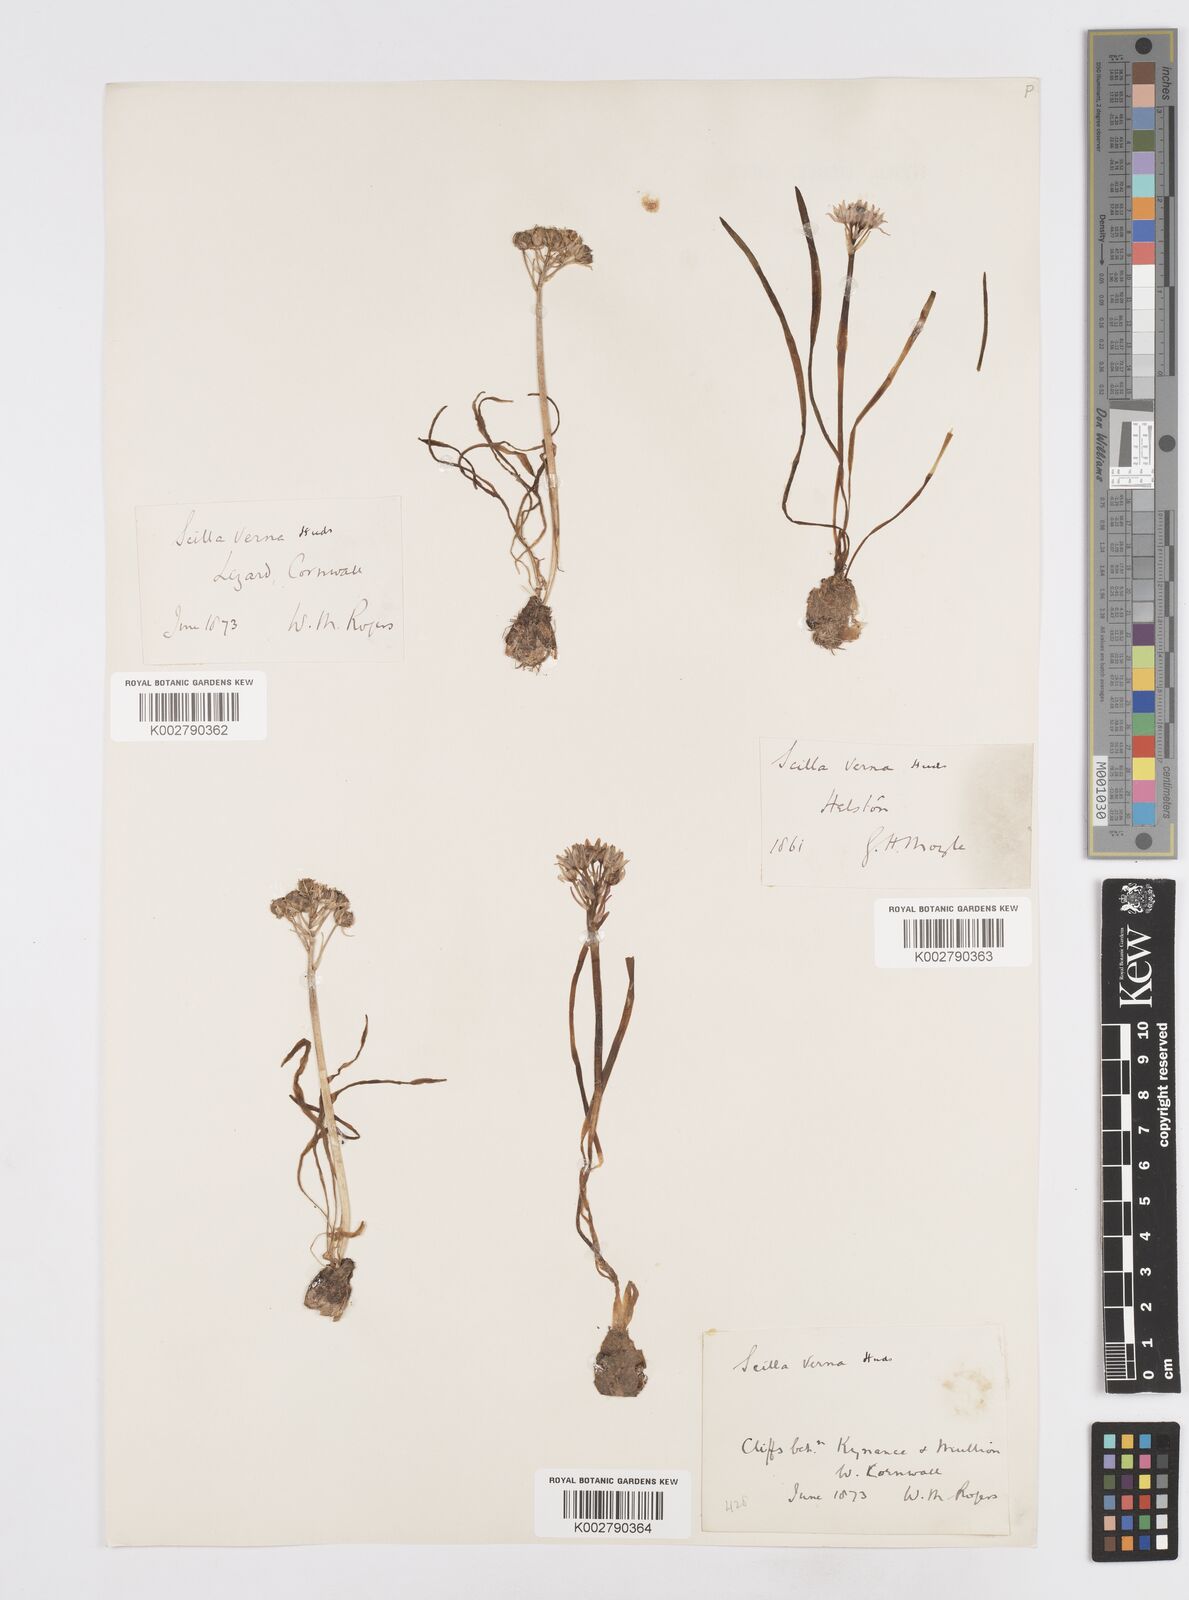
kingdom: Plantae
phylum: Tracheophyta
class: Liliopsida
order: Asparagales
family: Asparagaceae
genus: Scilla
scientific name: Scilla verna
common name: Spring squill
